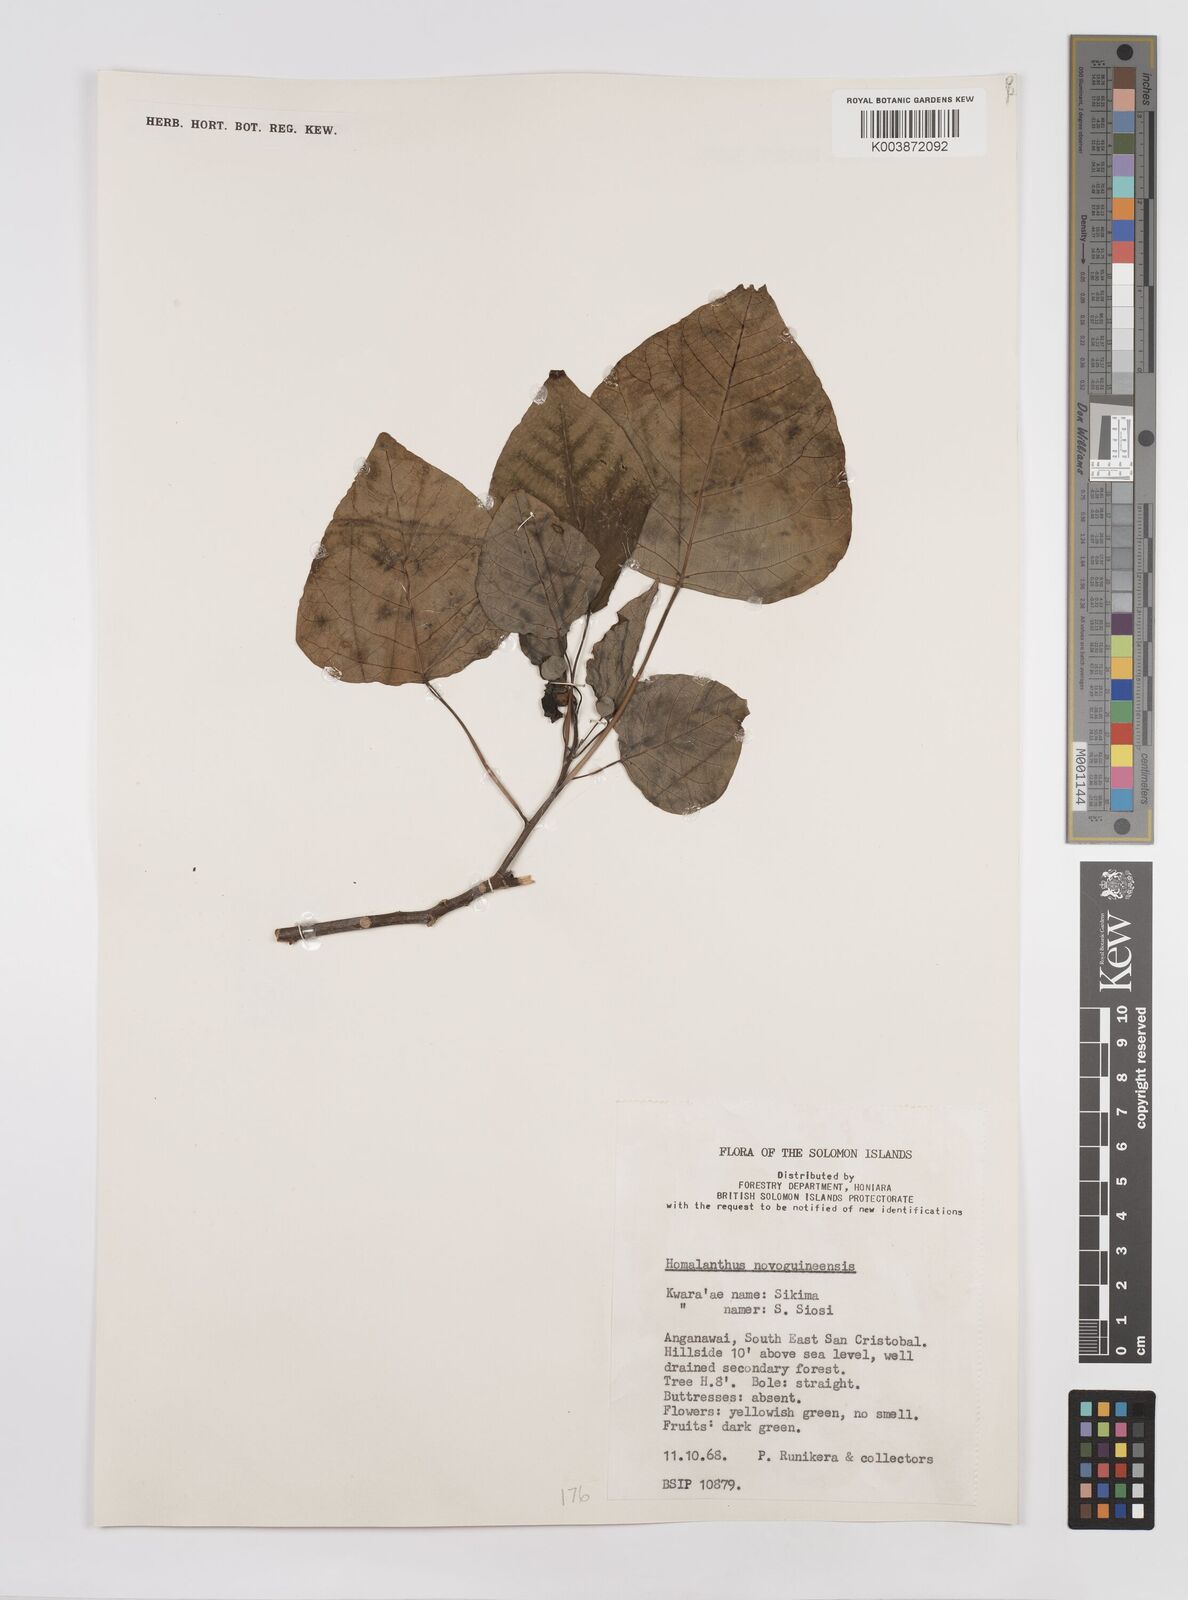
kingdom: Plantae
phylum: Tracheophyta
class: Magnoliopsida
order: Malpighiales
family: Euphorbiaceae
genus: Homalanthus
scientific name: Homalanthus novoguineensis
